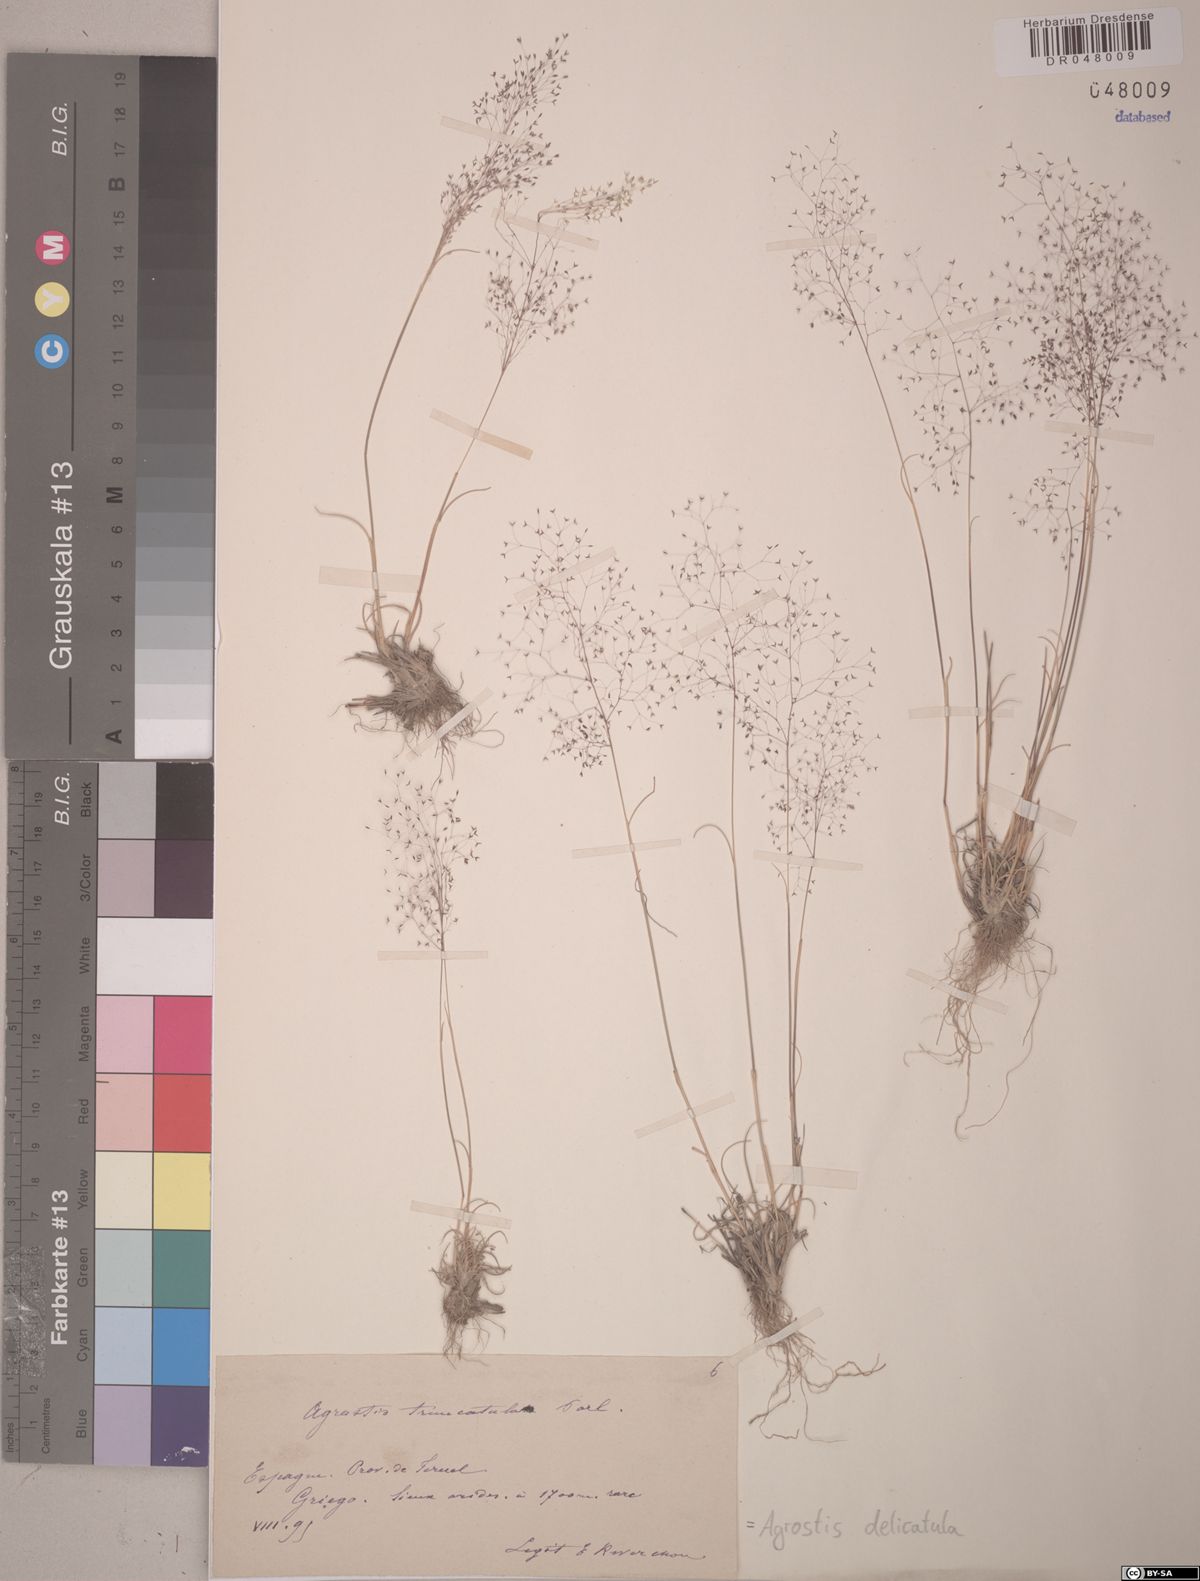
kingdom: Plantae
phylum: Tracheophyta
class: Liliopsida
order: Poales
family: Poaceae
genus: Agrostis
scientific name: Agrostis castellana
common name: Highland bent
